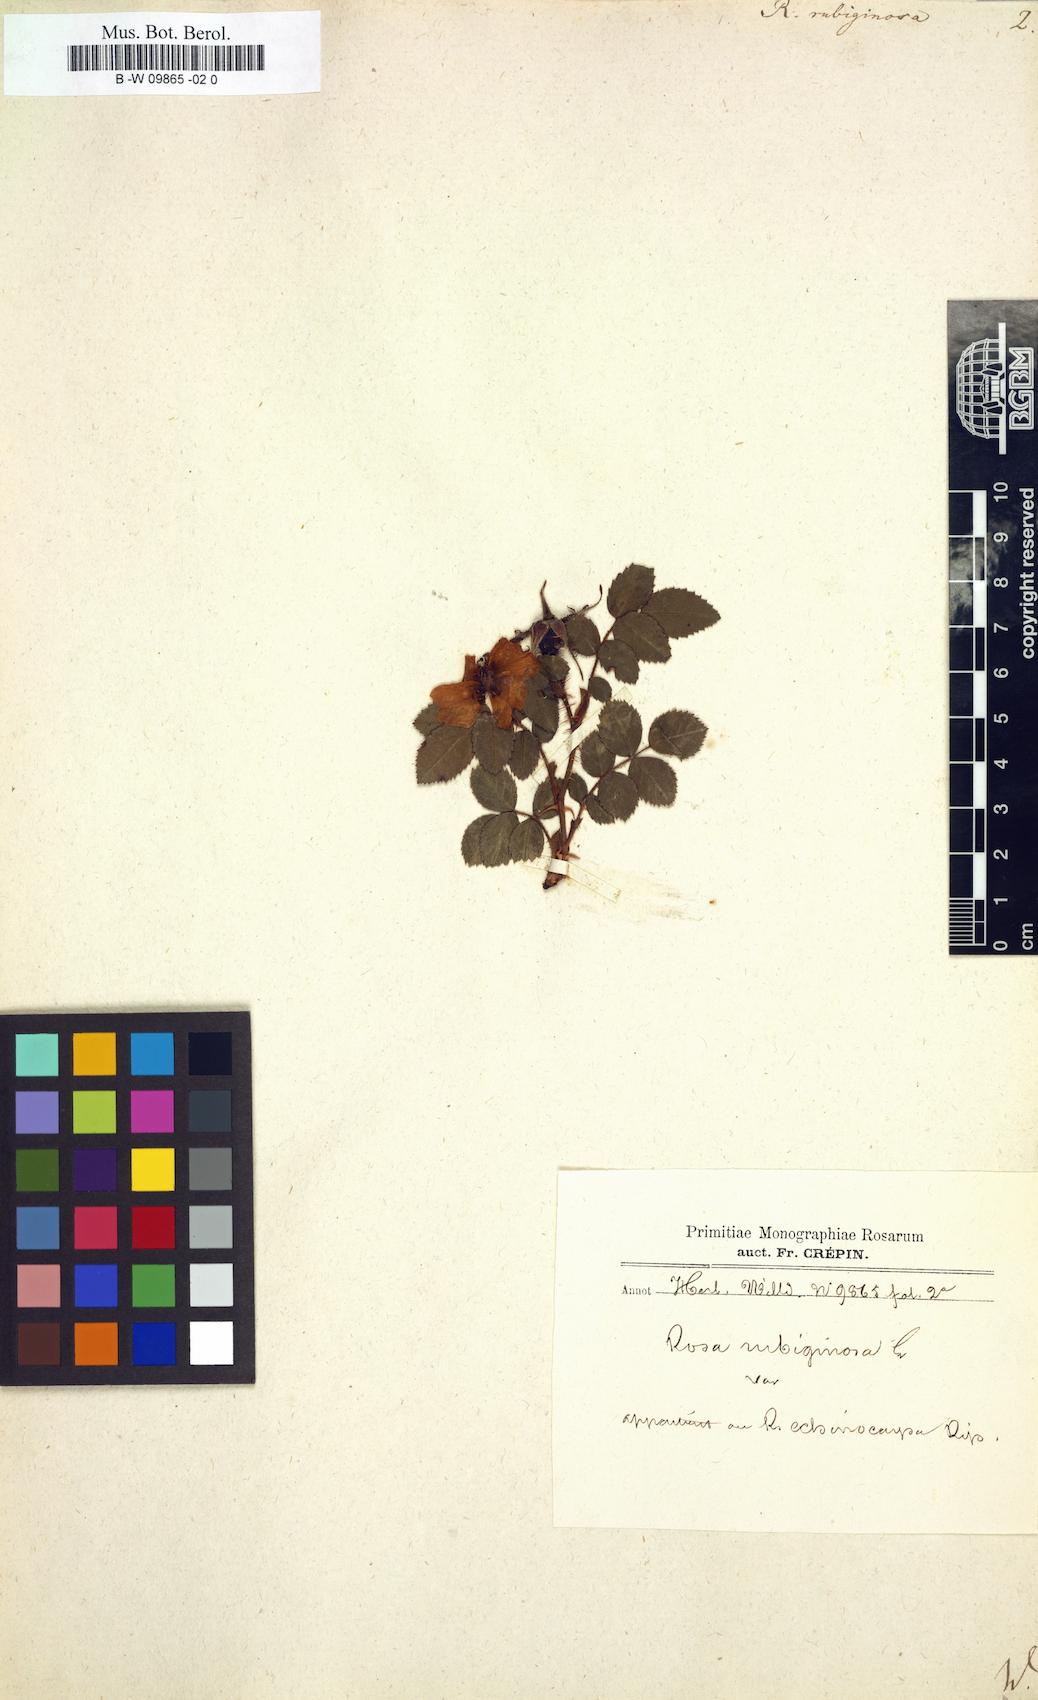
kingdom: Plantae
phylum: Tracheophyta
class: Magnoliopsida
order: Rosales
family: Rosaceae
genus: Rosa
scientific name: Rosa rubiginosa
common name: Sweet-briar
